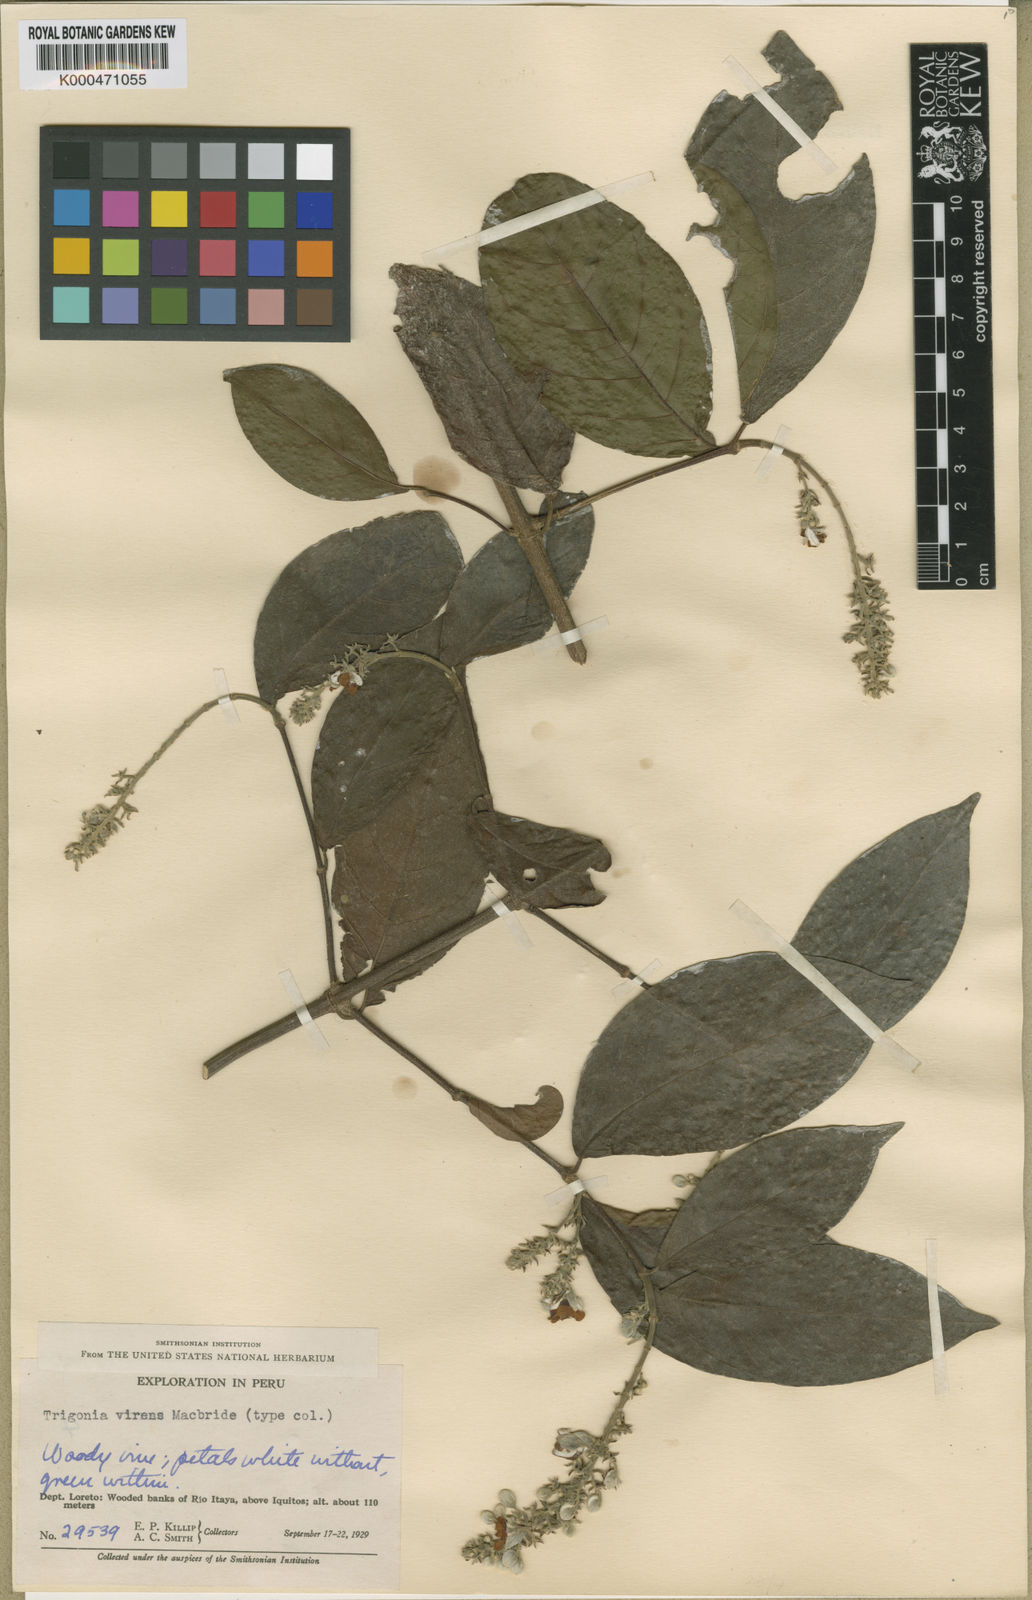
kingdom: Plantae
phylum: Tracheophyta
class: Magnoliopsida
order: Malpighiales
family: Trigoniaceae
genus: Trigonia
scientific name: Trigonia virens
